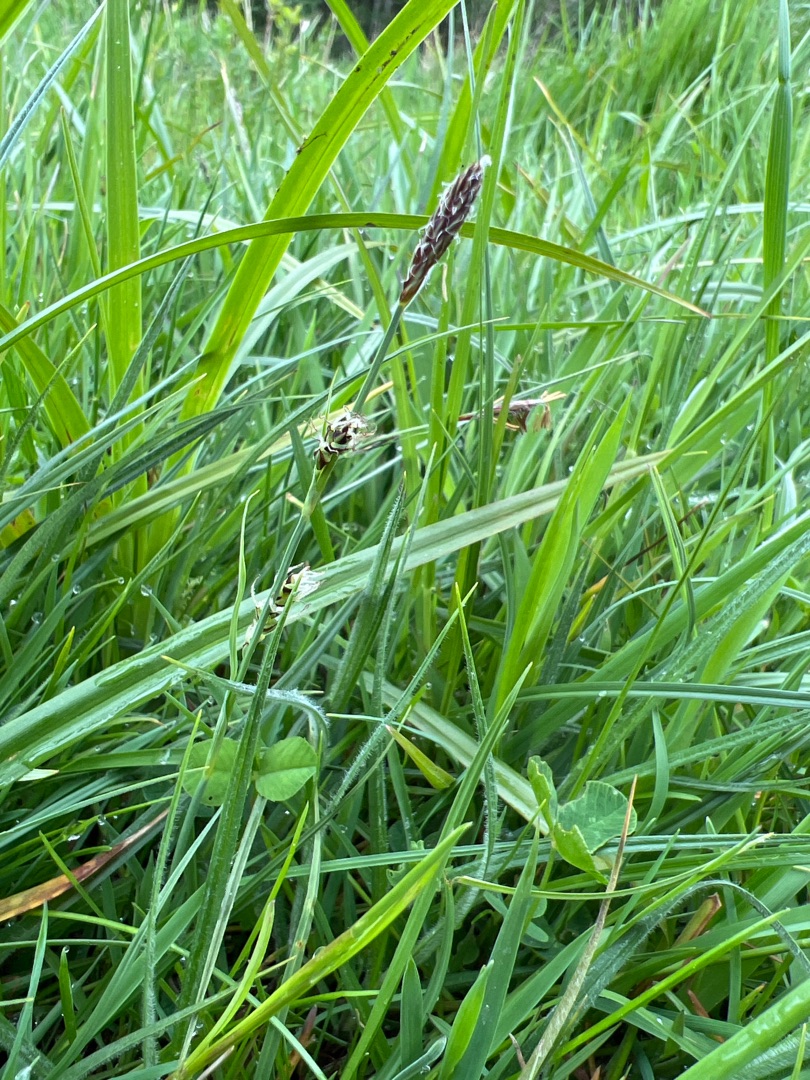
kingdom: Plantae
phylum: Tracheophyta
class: Liliopsida
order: Poales
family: Cyperaceae
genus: Carex
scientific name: Carex panicea
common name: Hirse-star
